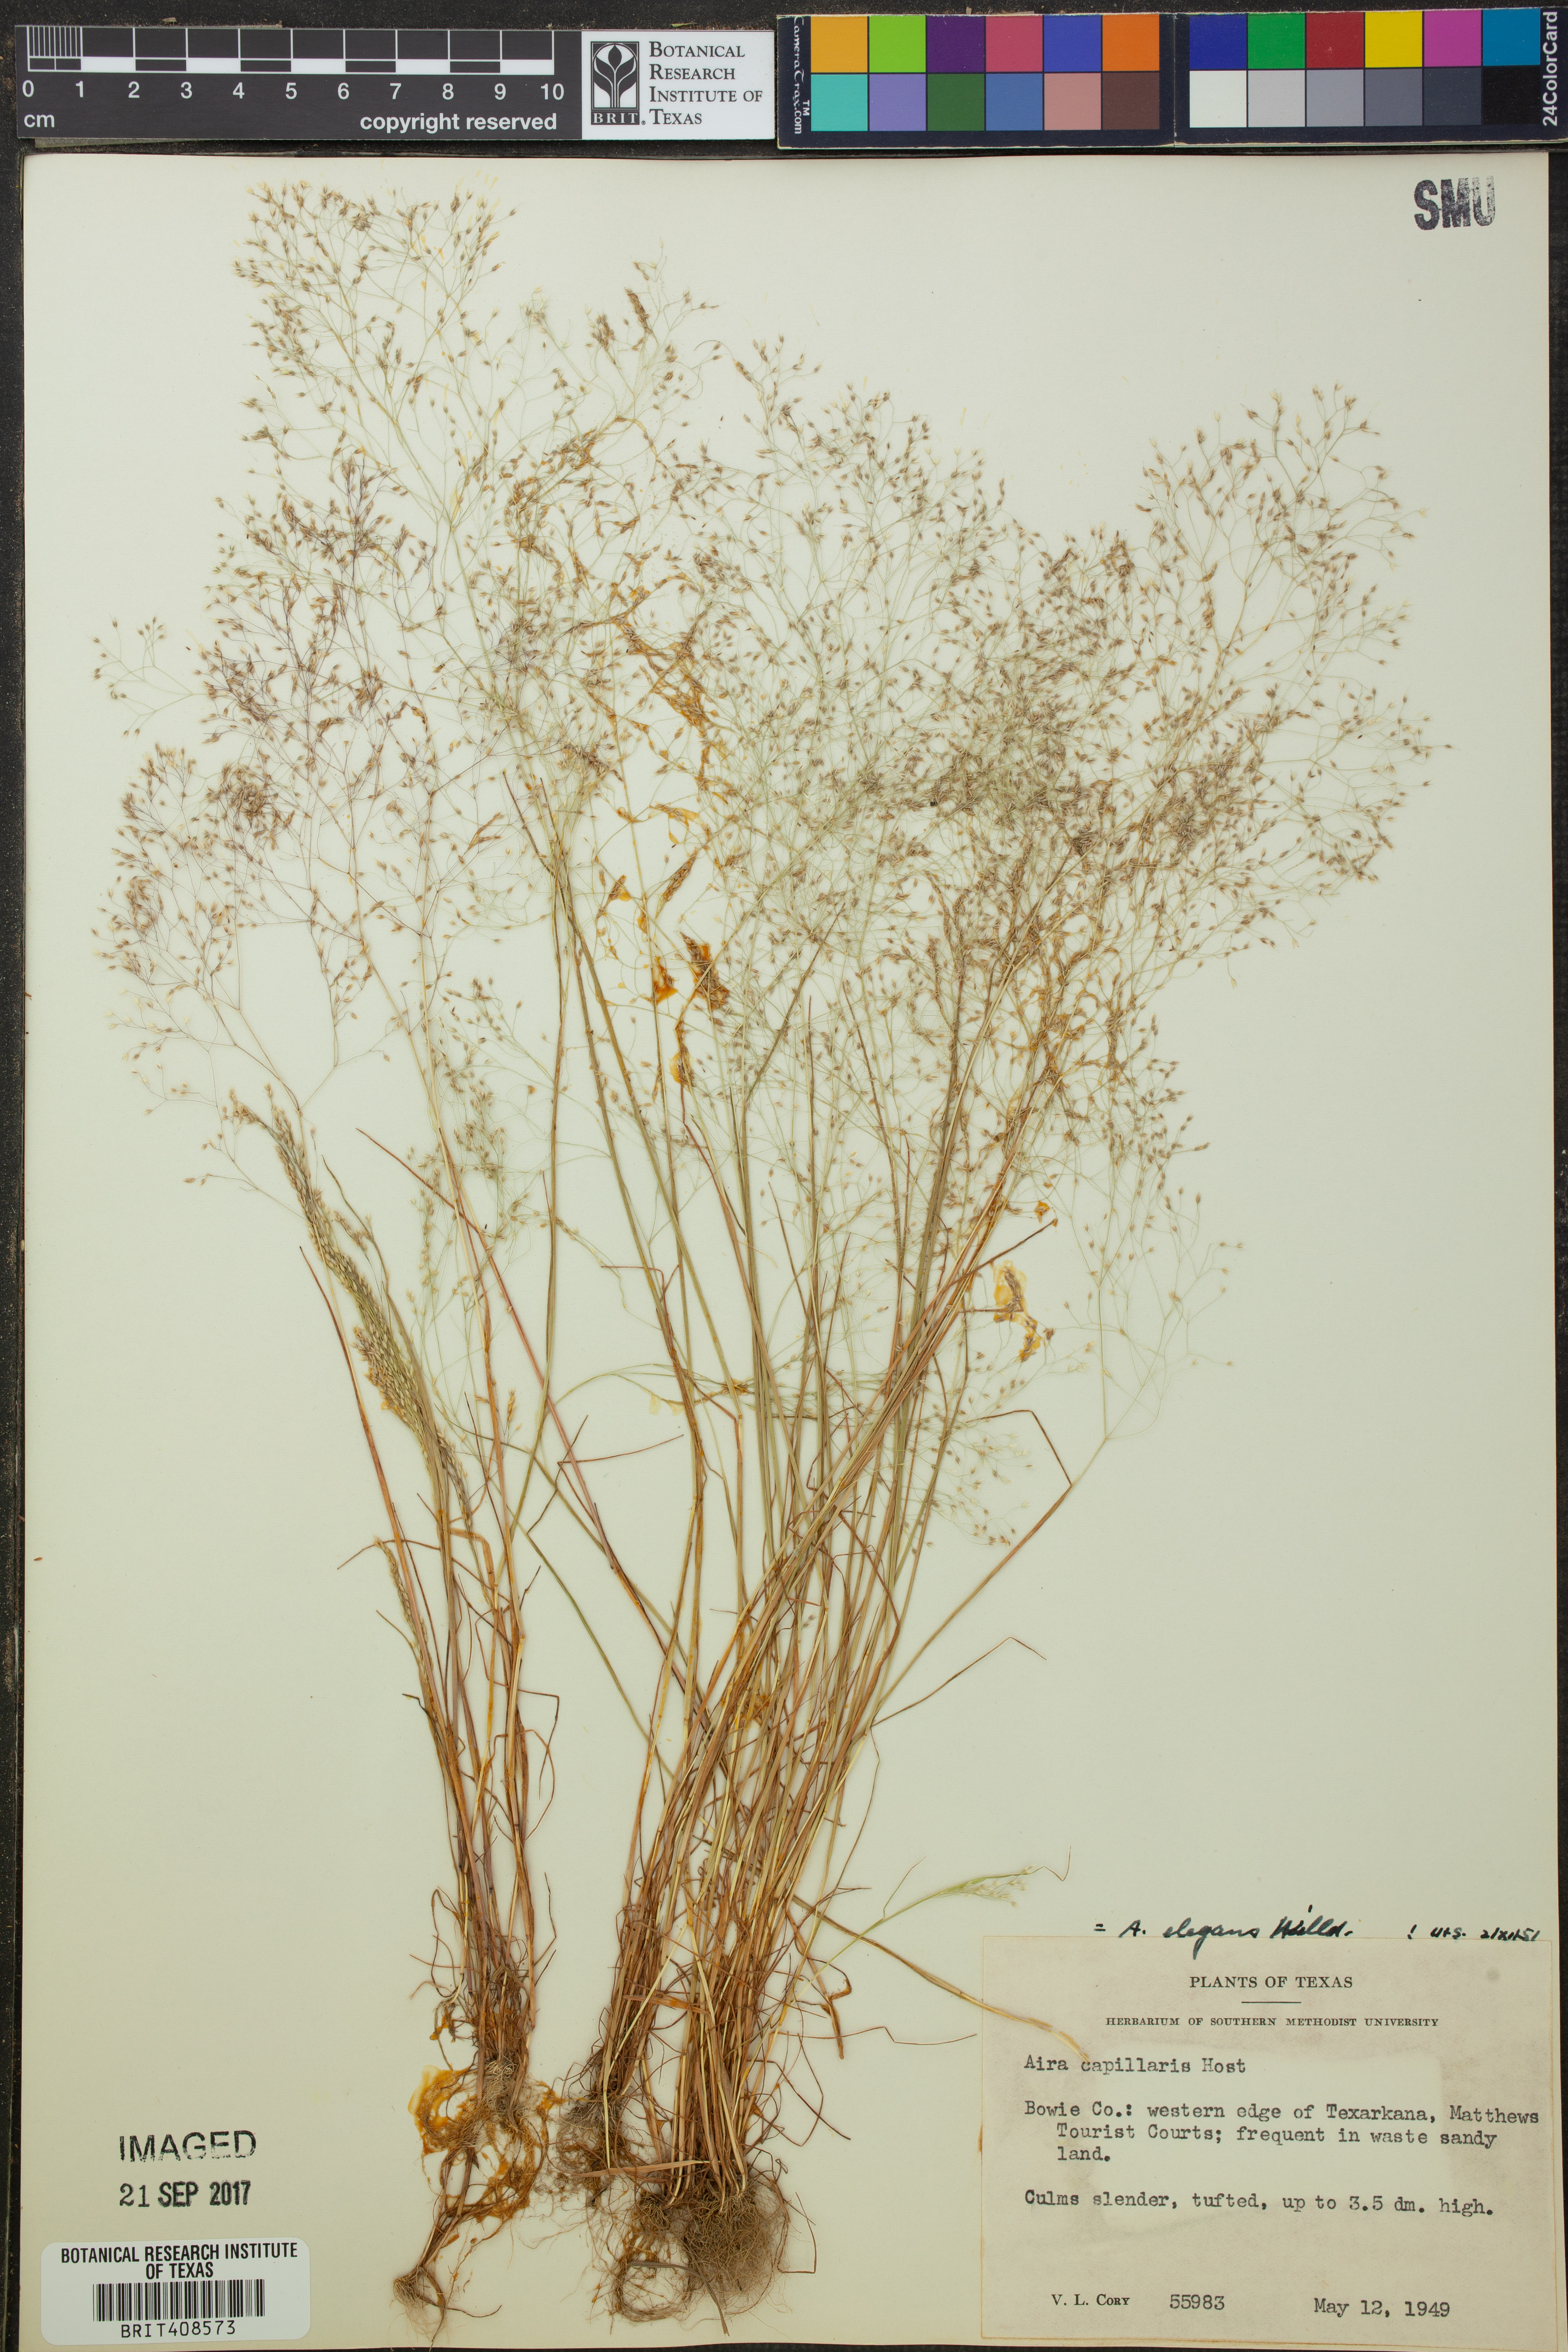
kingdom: Plantae
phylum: Tracheophyta
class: Liliopsida
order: Poales
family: Poaceae
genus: Aira
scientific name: Aira capillaris
